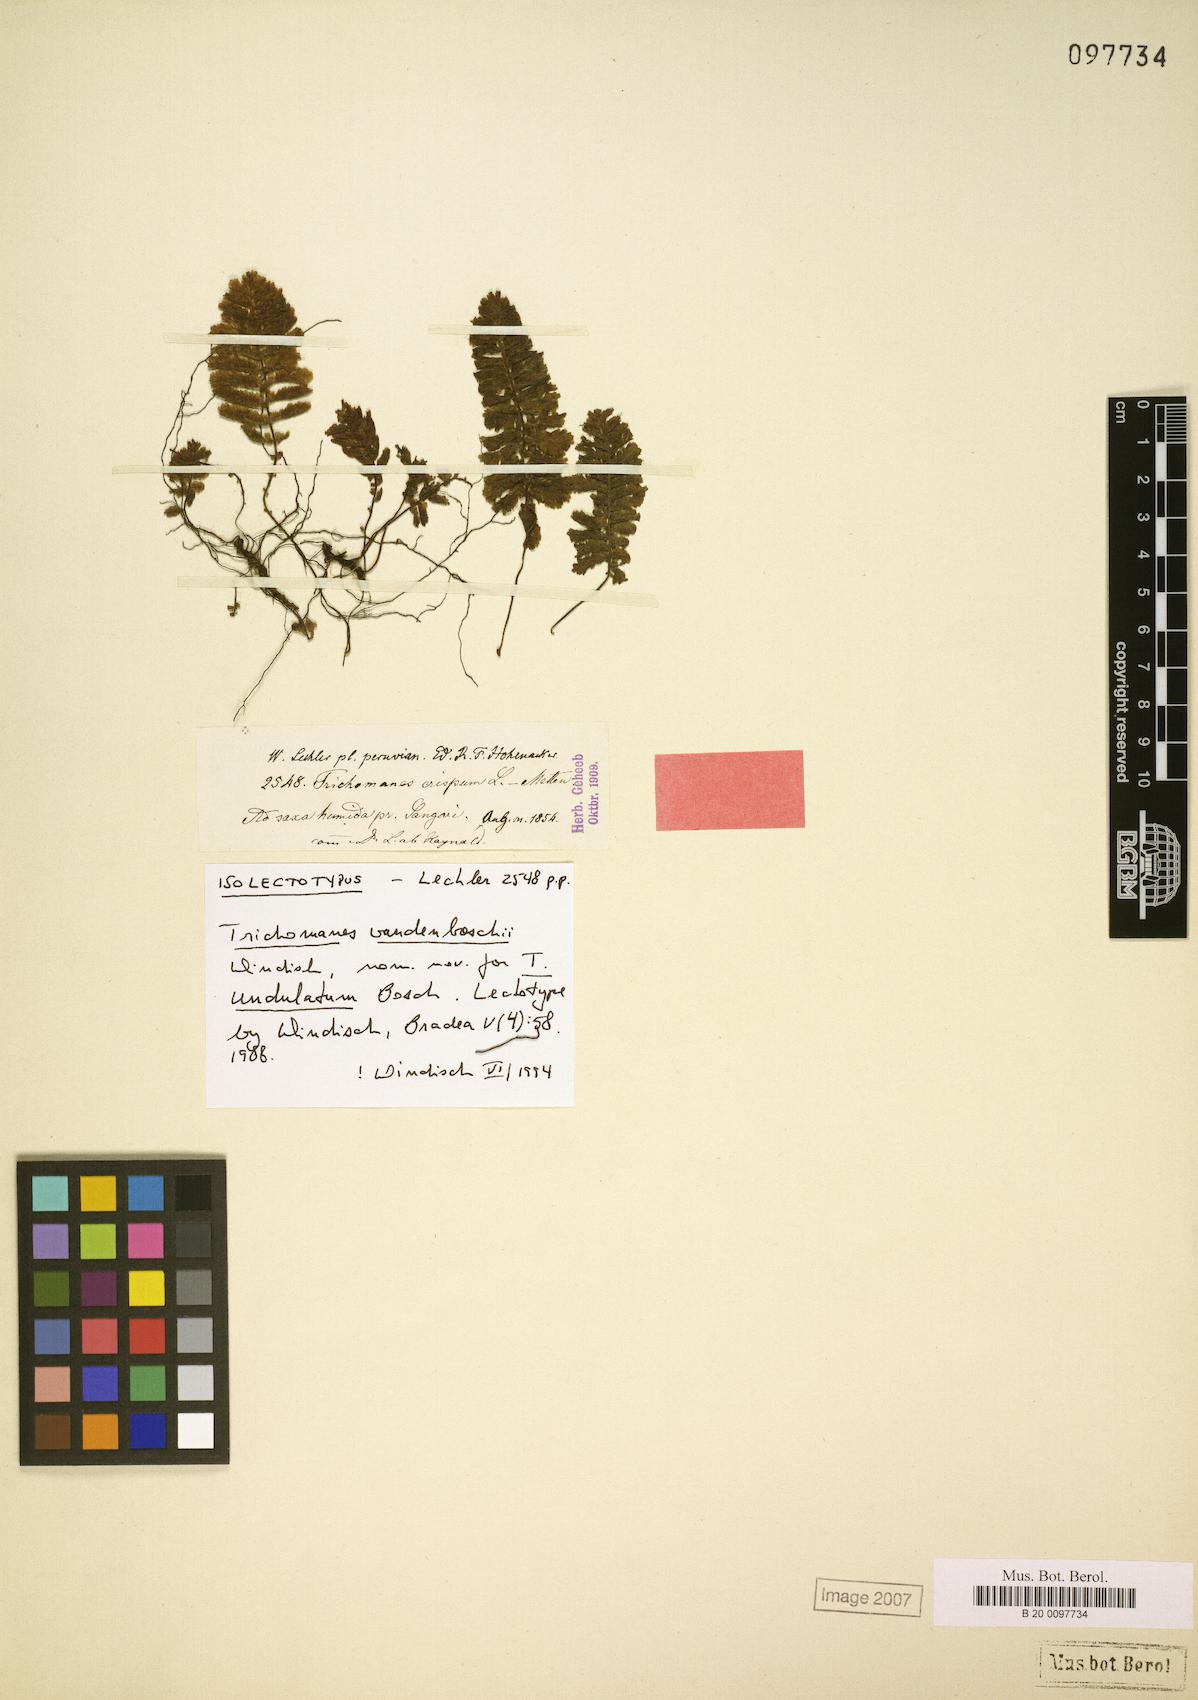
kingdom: Plantae
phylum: Tracheophyta
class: Polypodiopsida
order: Hymenophyllales
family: Hymenophyllaceae
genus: Trichomanes
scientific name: Trichomanes vandenboschii
